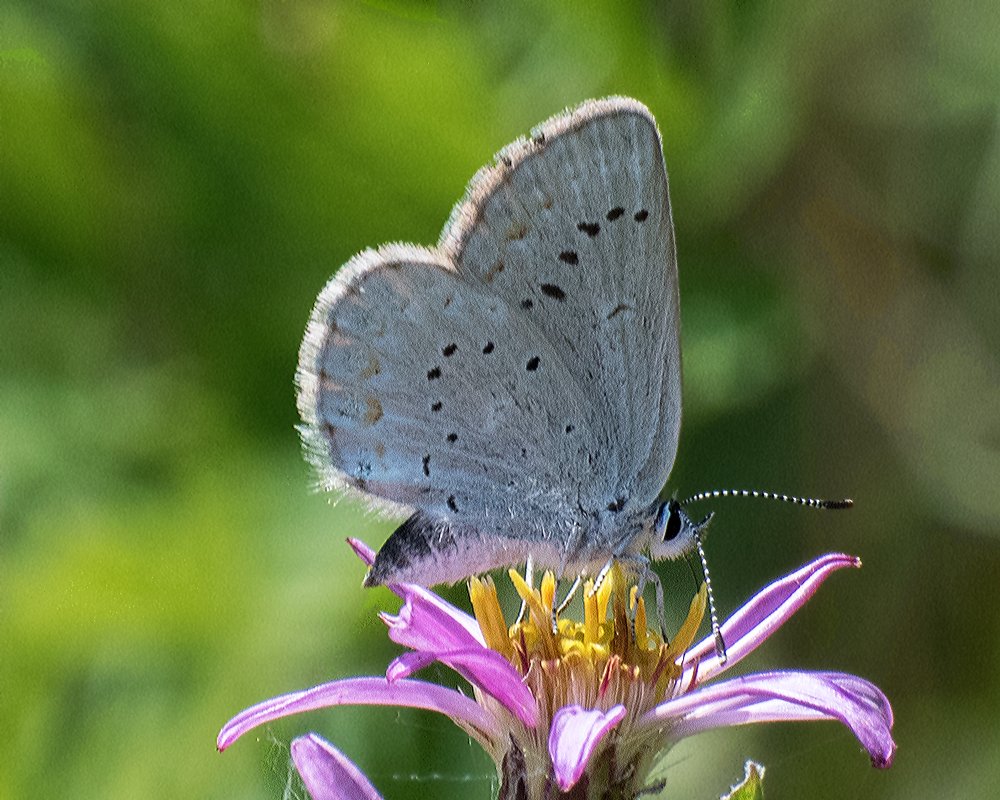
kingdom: Animalia
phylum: Arthropoda
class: Insecta
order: Lepidoptera
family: Lycaenidae
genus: Lycaeides
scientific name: Lycaeides anna
